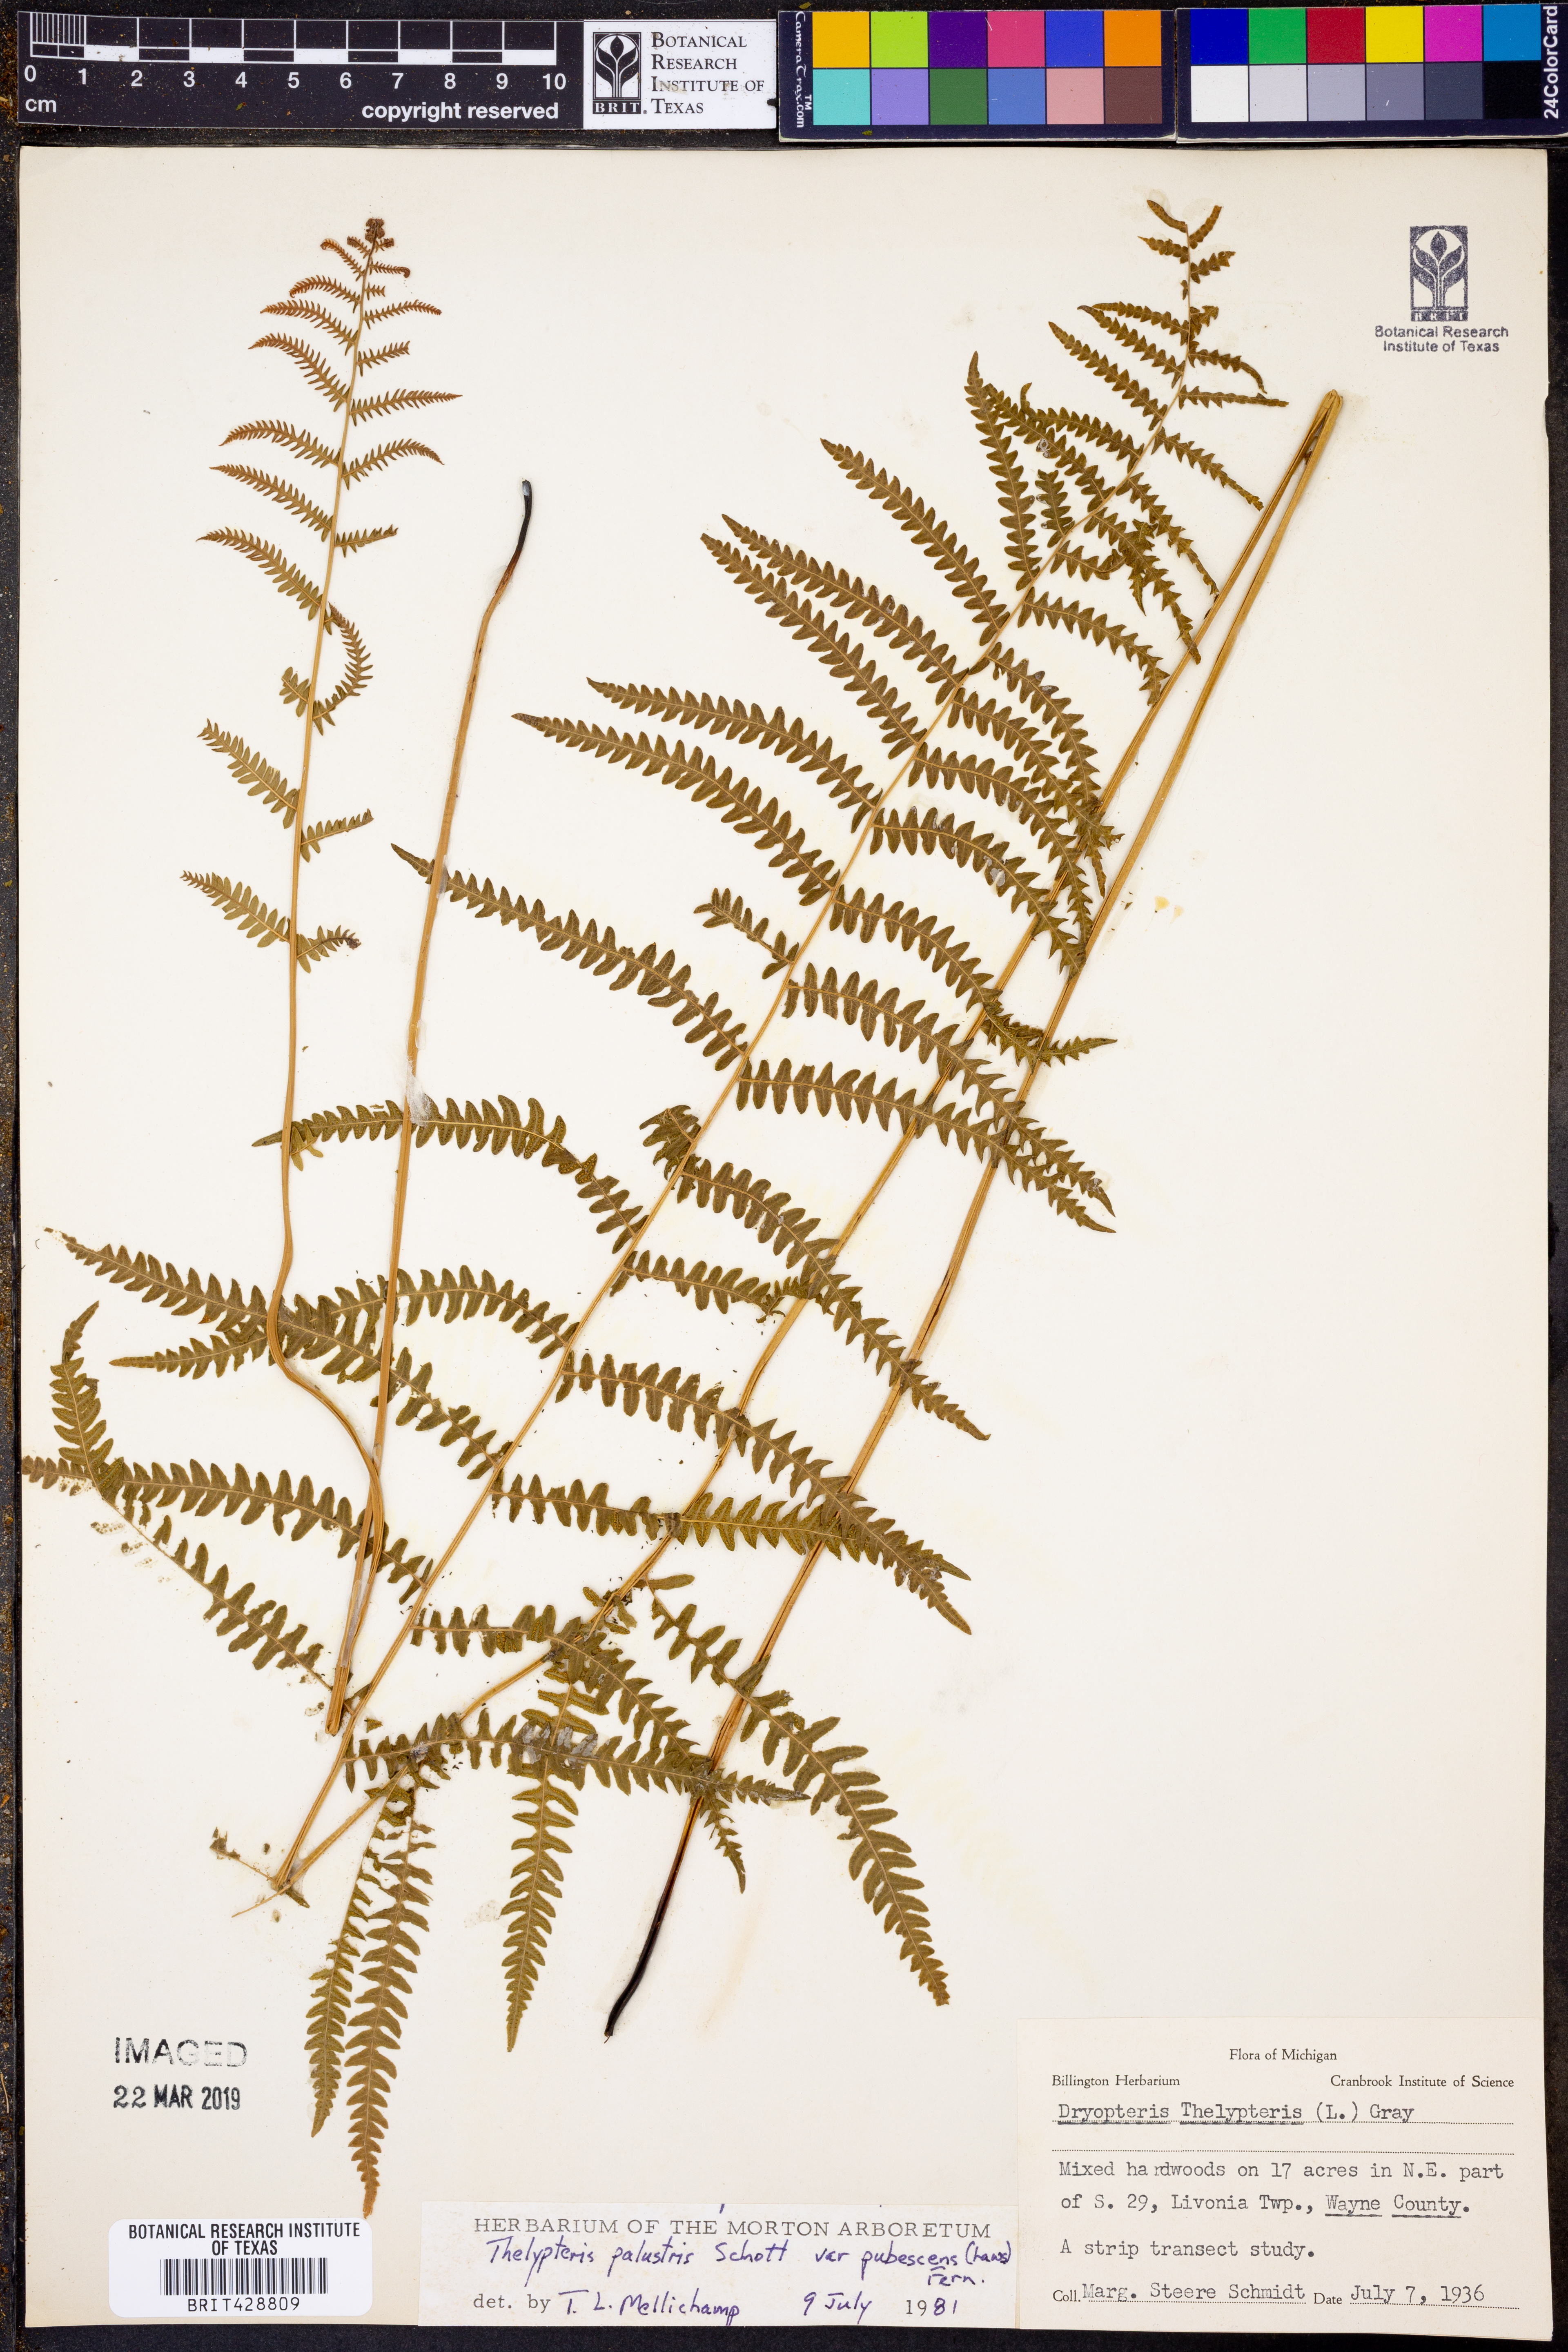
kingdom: Plantae
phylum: Tracheophyta
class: Polypodiopsida
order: Polypodiales
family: Thelypteridaceae
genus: Thelypteris
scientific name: Thelypteris palustris
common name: Marsh fern
